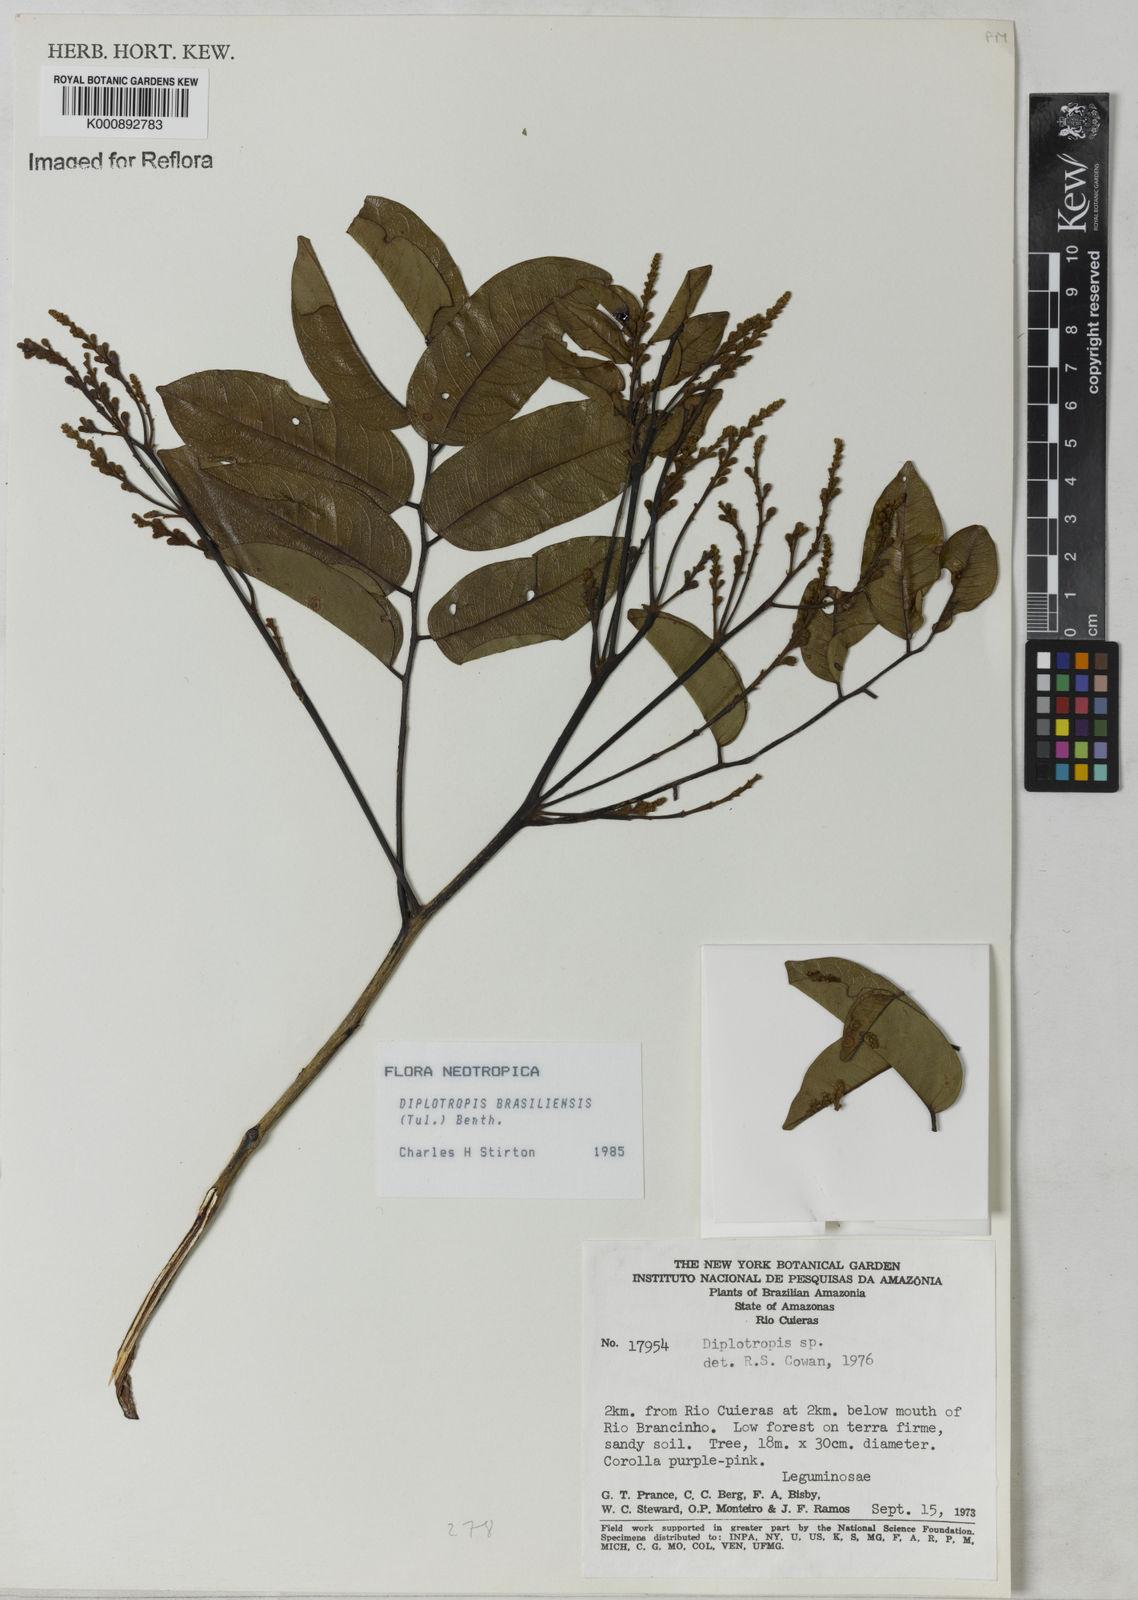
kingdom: Plantae
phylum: Tracheophyta
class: Magnoliopsida
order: Fabales
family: Fabaceae
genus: Diplotropis
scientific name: Diplotropis brasiliensis
